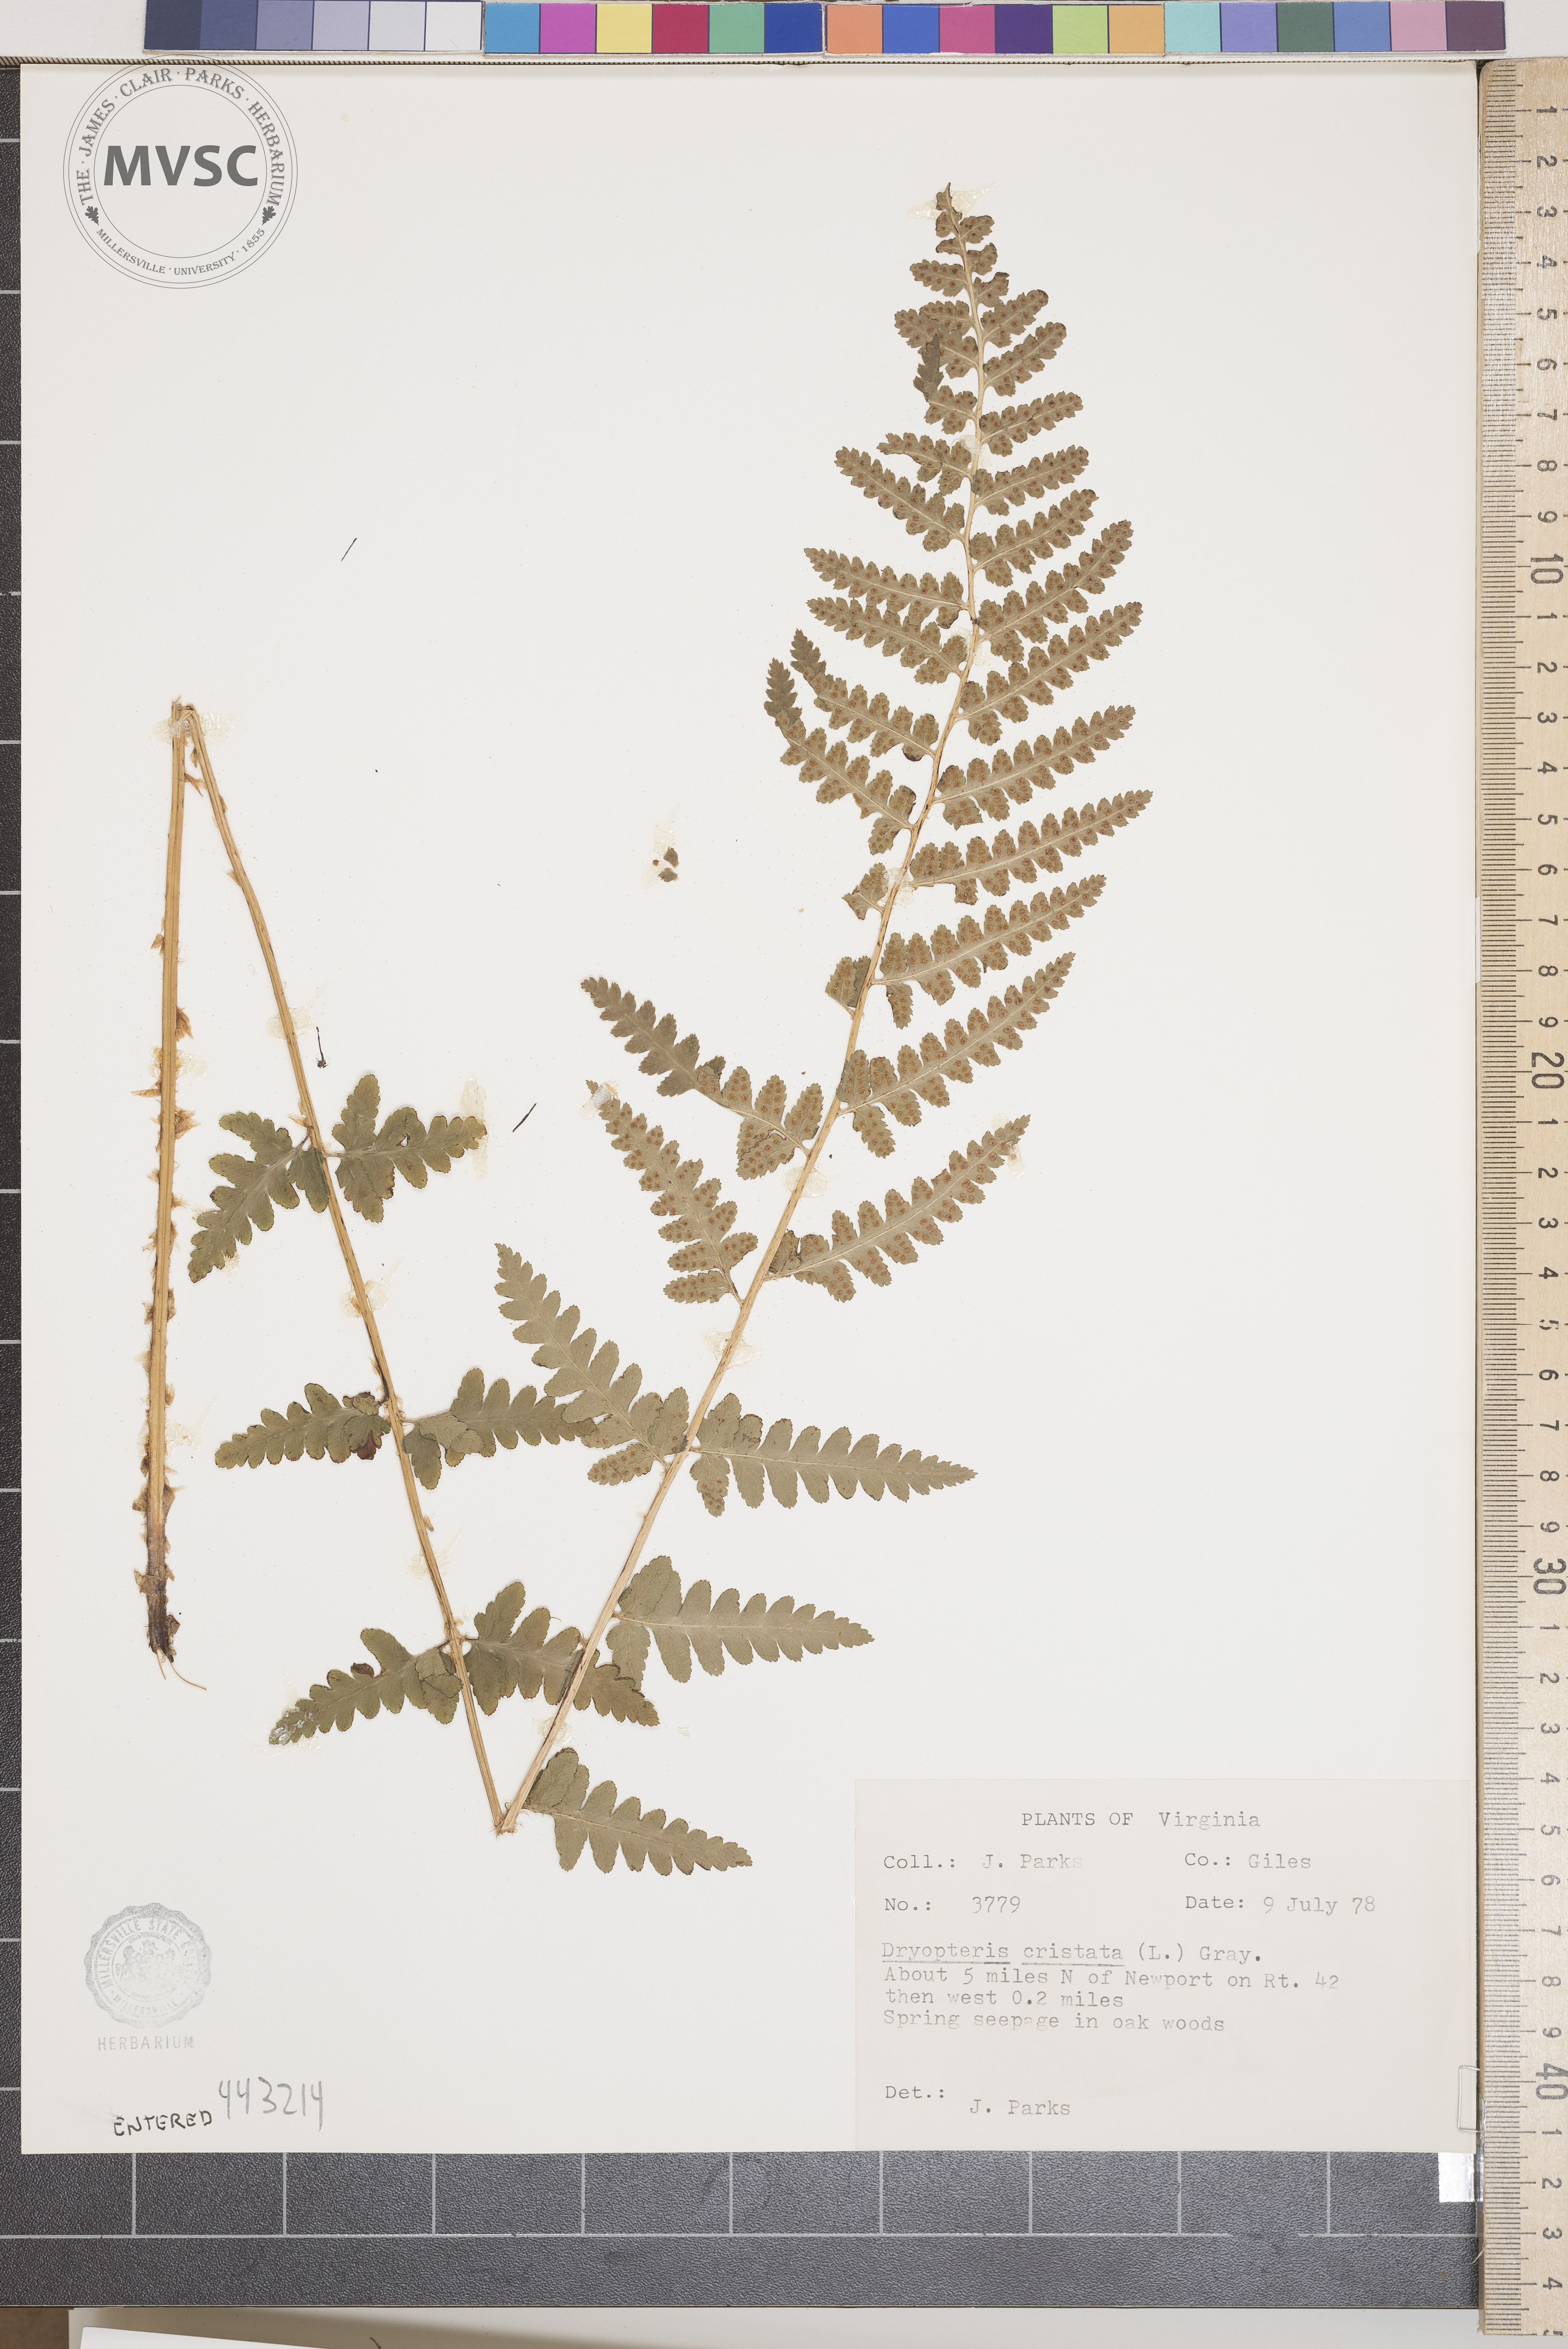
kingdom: Plantae
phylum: Tracheophyta
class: Polypodiopsida
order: Polypodiales
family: Dryopteridaceae
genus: Dryopteris
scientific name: Dryopteris cristata
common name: Crested wood fern
